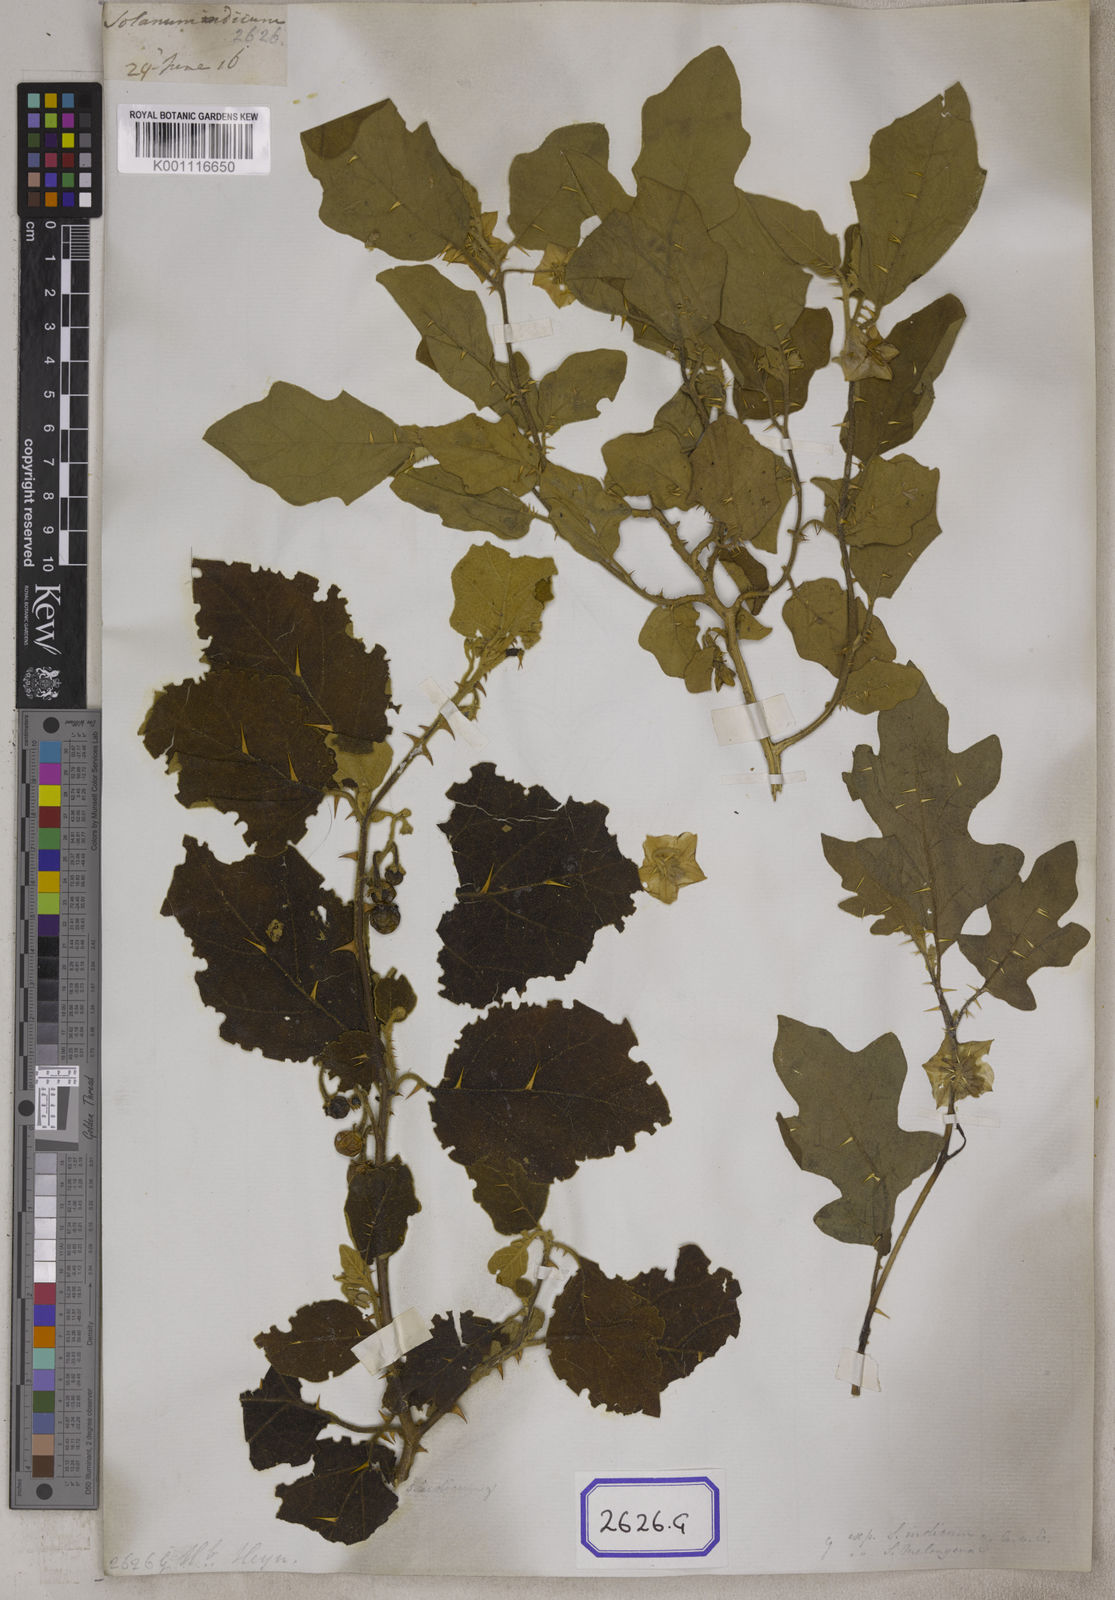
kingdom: Plantae
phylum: Tracheophyta
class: Magnoliopsida
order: Solanales
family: Solanaceae
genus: Solanum
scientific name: Solanum violaceum
